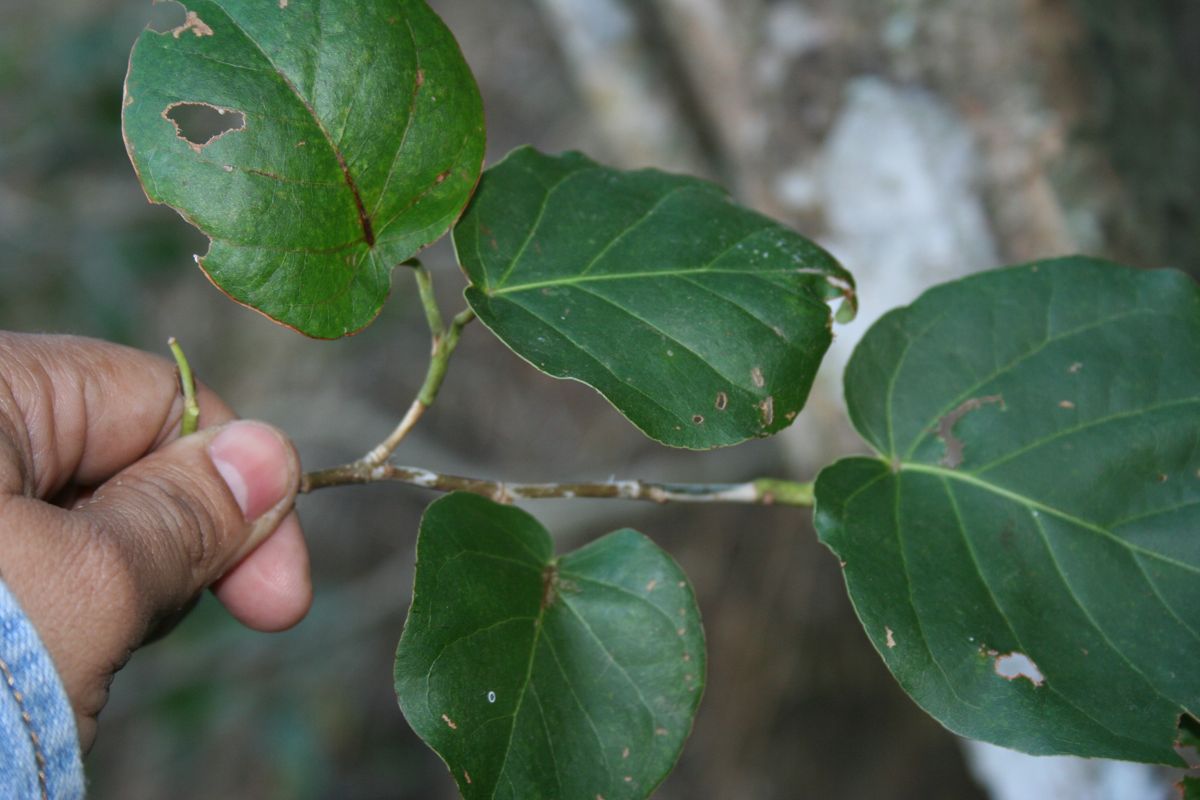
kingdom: Plantae
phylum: Tracheophyta
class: Magnoliopsida
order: Caryophyllales
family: Polygonaceae
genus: Coccoloba
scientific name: Coccoloba acapulcensis
